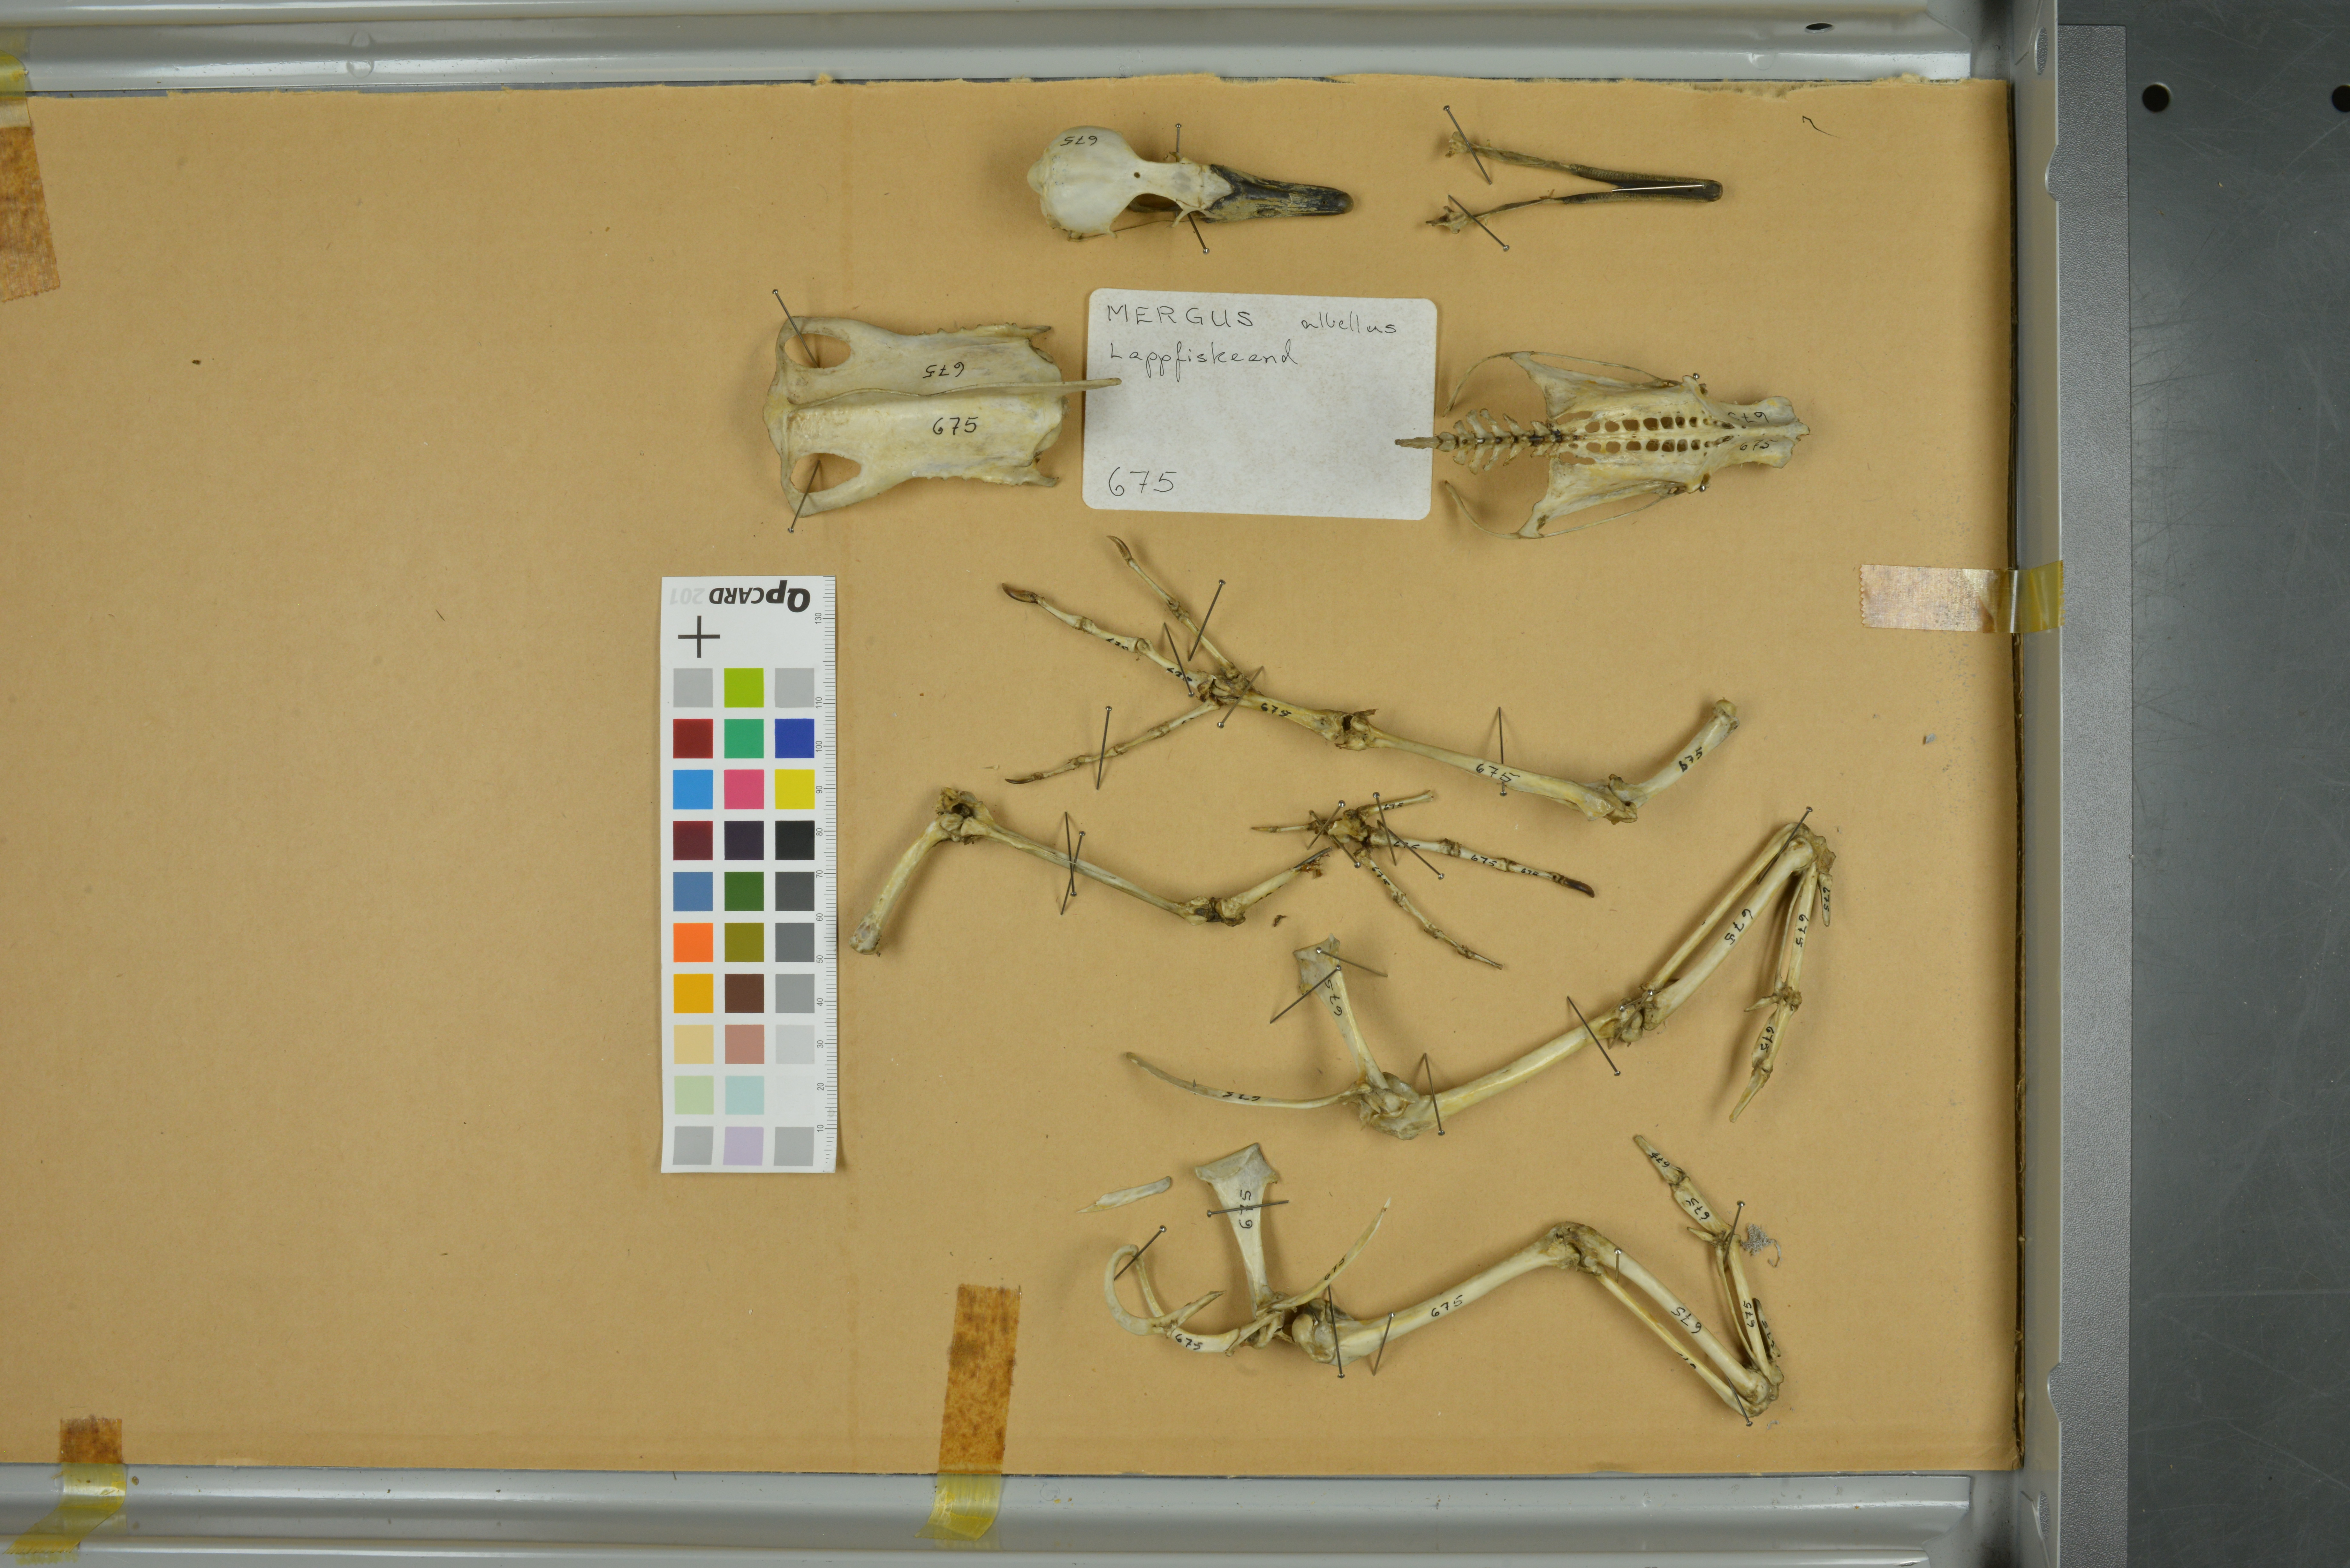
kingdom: Animalia
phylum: Chordata
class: Aves
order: Anseriformes
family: Anatidae
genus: Mergellus
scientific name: Mergellus albellus
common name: Smew
